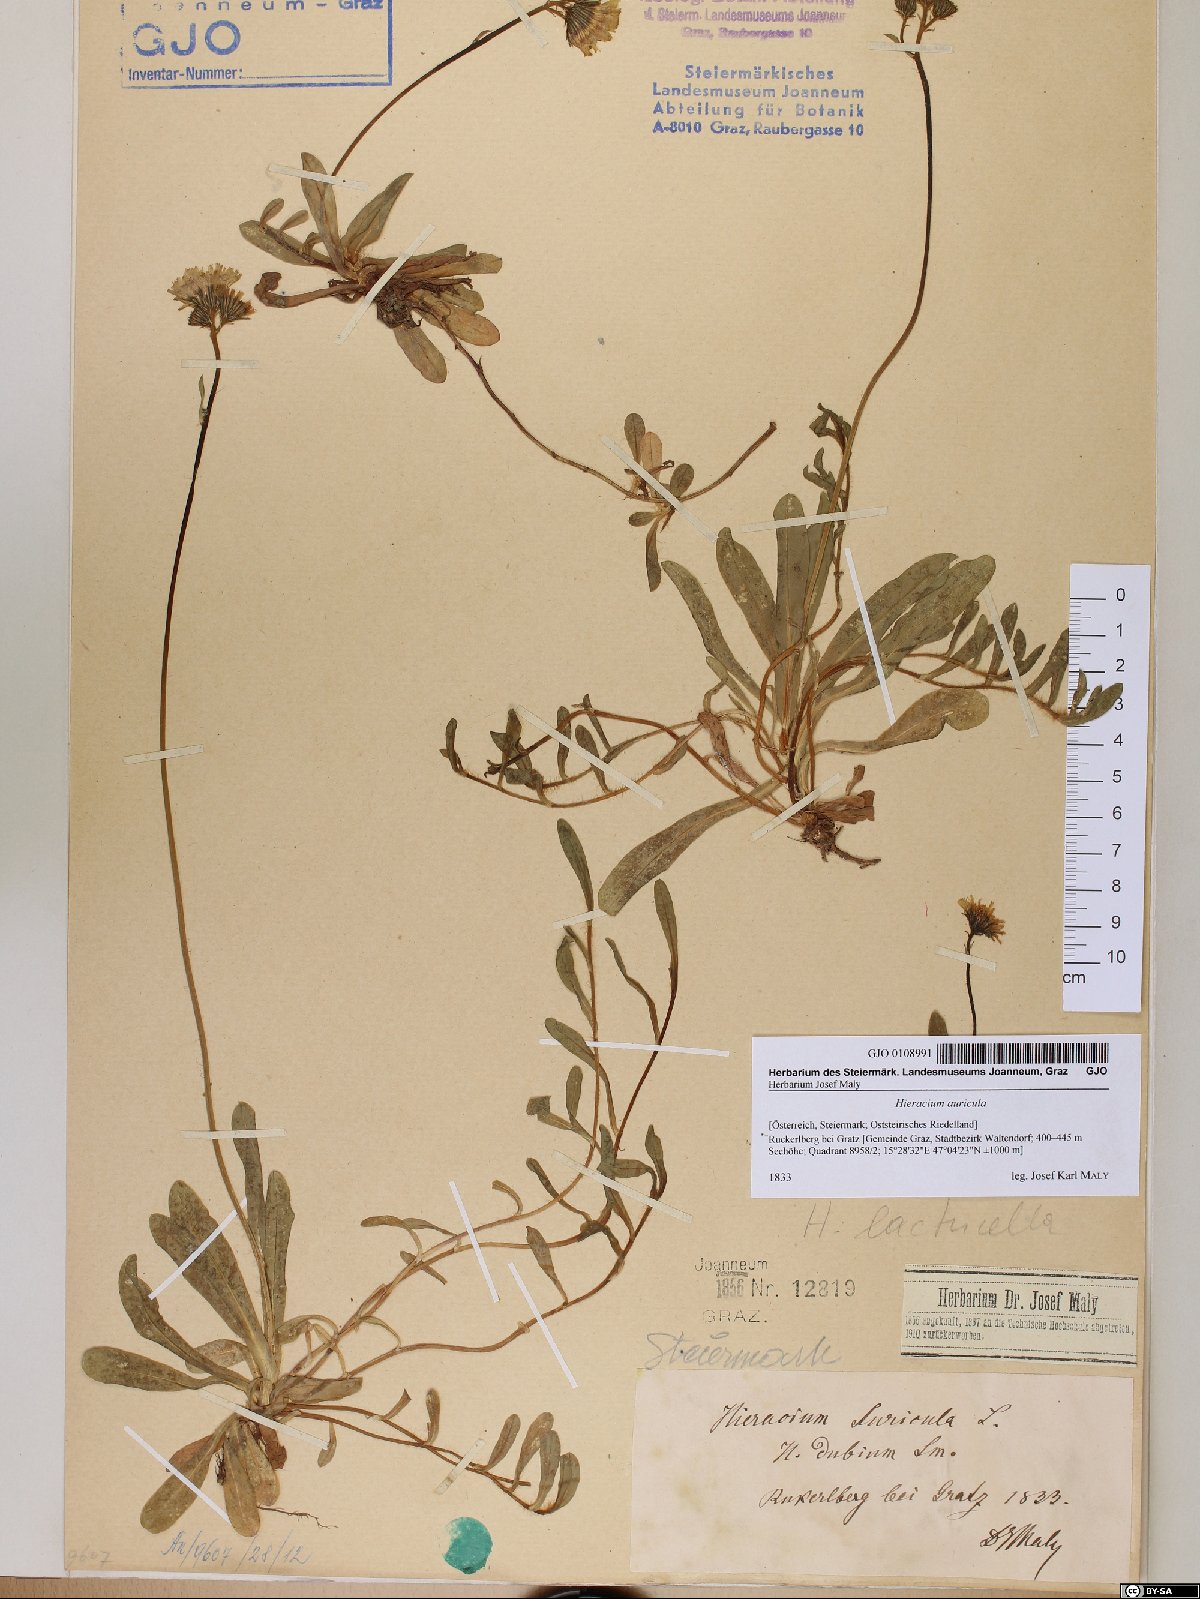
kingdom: Plantae
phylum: Tracheophyta
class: Magnoliopsida
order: Asterales
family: Asteraceae
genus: Hieracium
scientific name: Hieracium auricula
